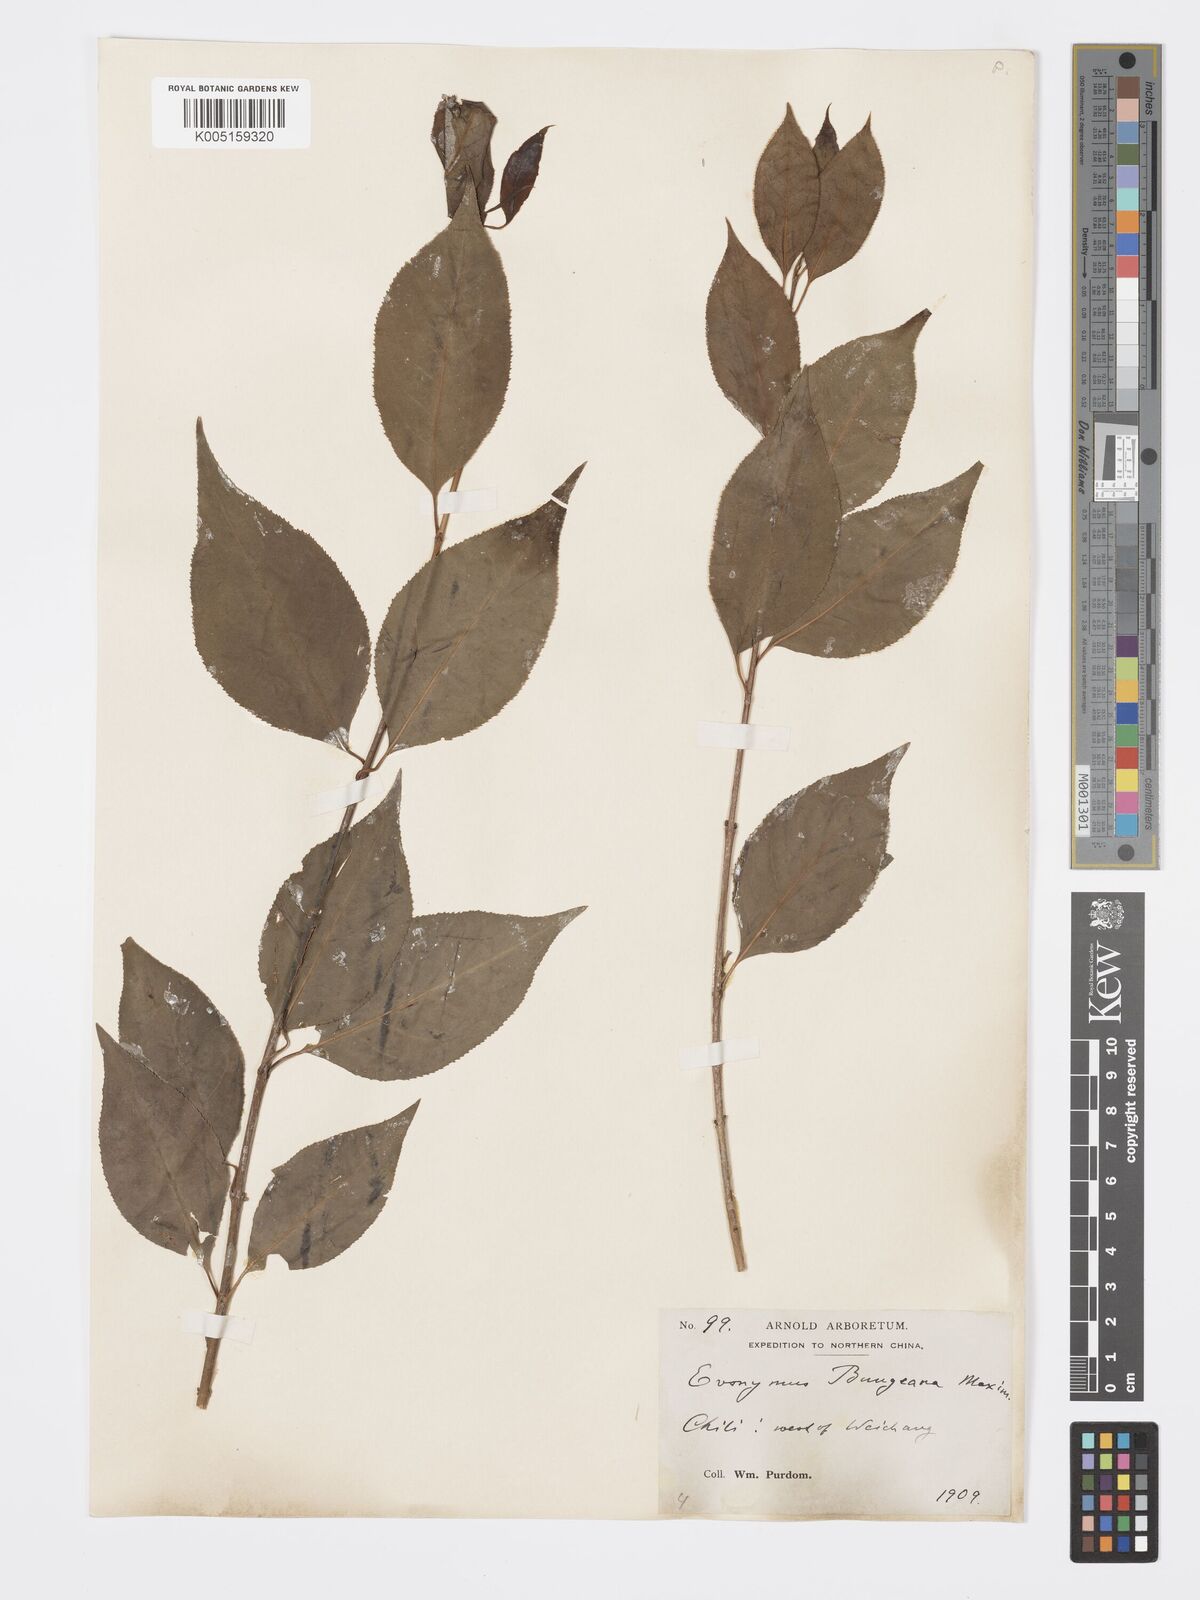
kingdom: Plantae
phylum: Tracheophyta
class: Magnoliopsida
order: Celastrales
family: Celastraceae
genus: Euonymus
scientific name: Euonymus maackii
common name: Hamilton's spindletree
